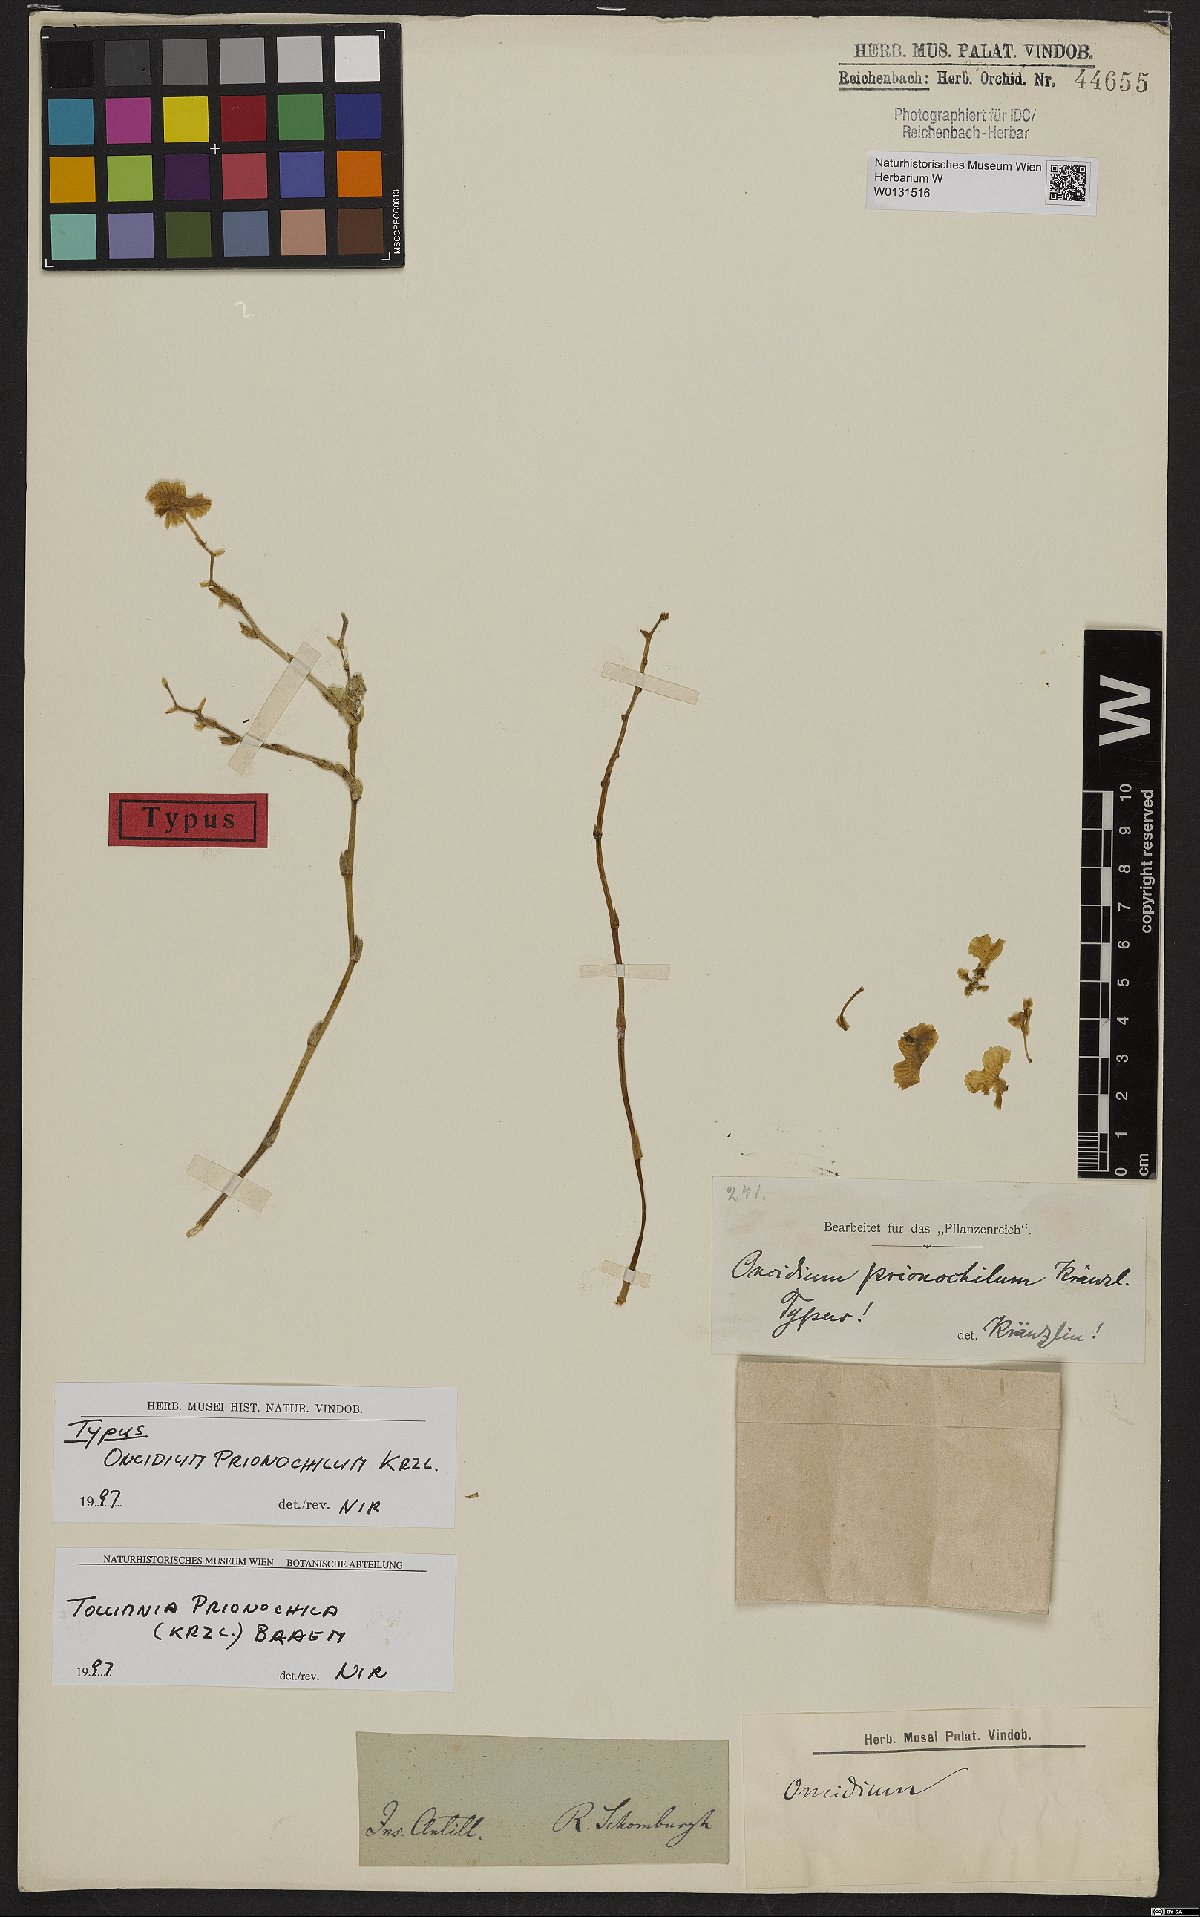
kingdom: Plantae
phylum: Tracheophyta
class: Liliopsida
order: Asparagales
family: Orchidaceae
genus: Tolumnia
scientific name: Tolumnia prionochila
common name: Dancying lady
